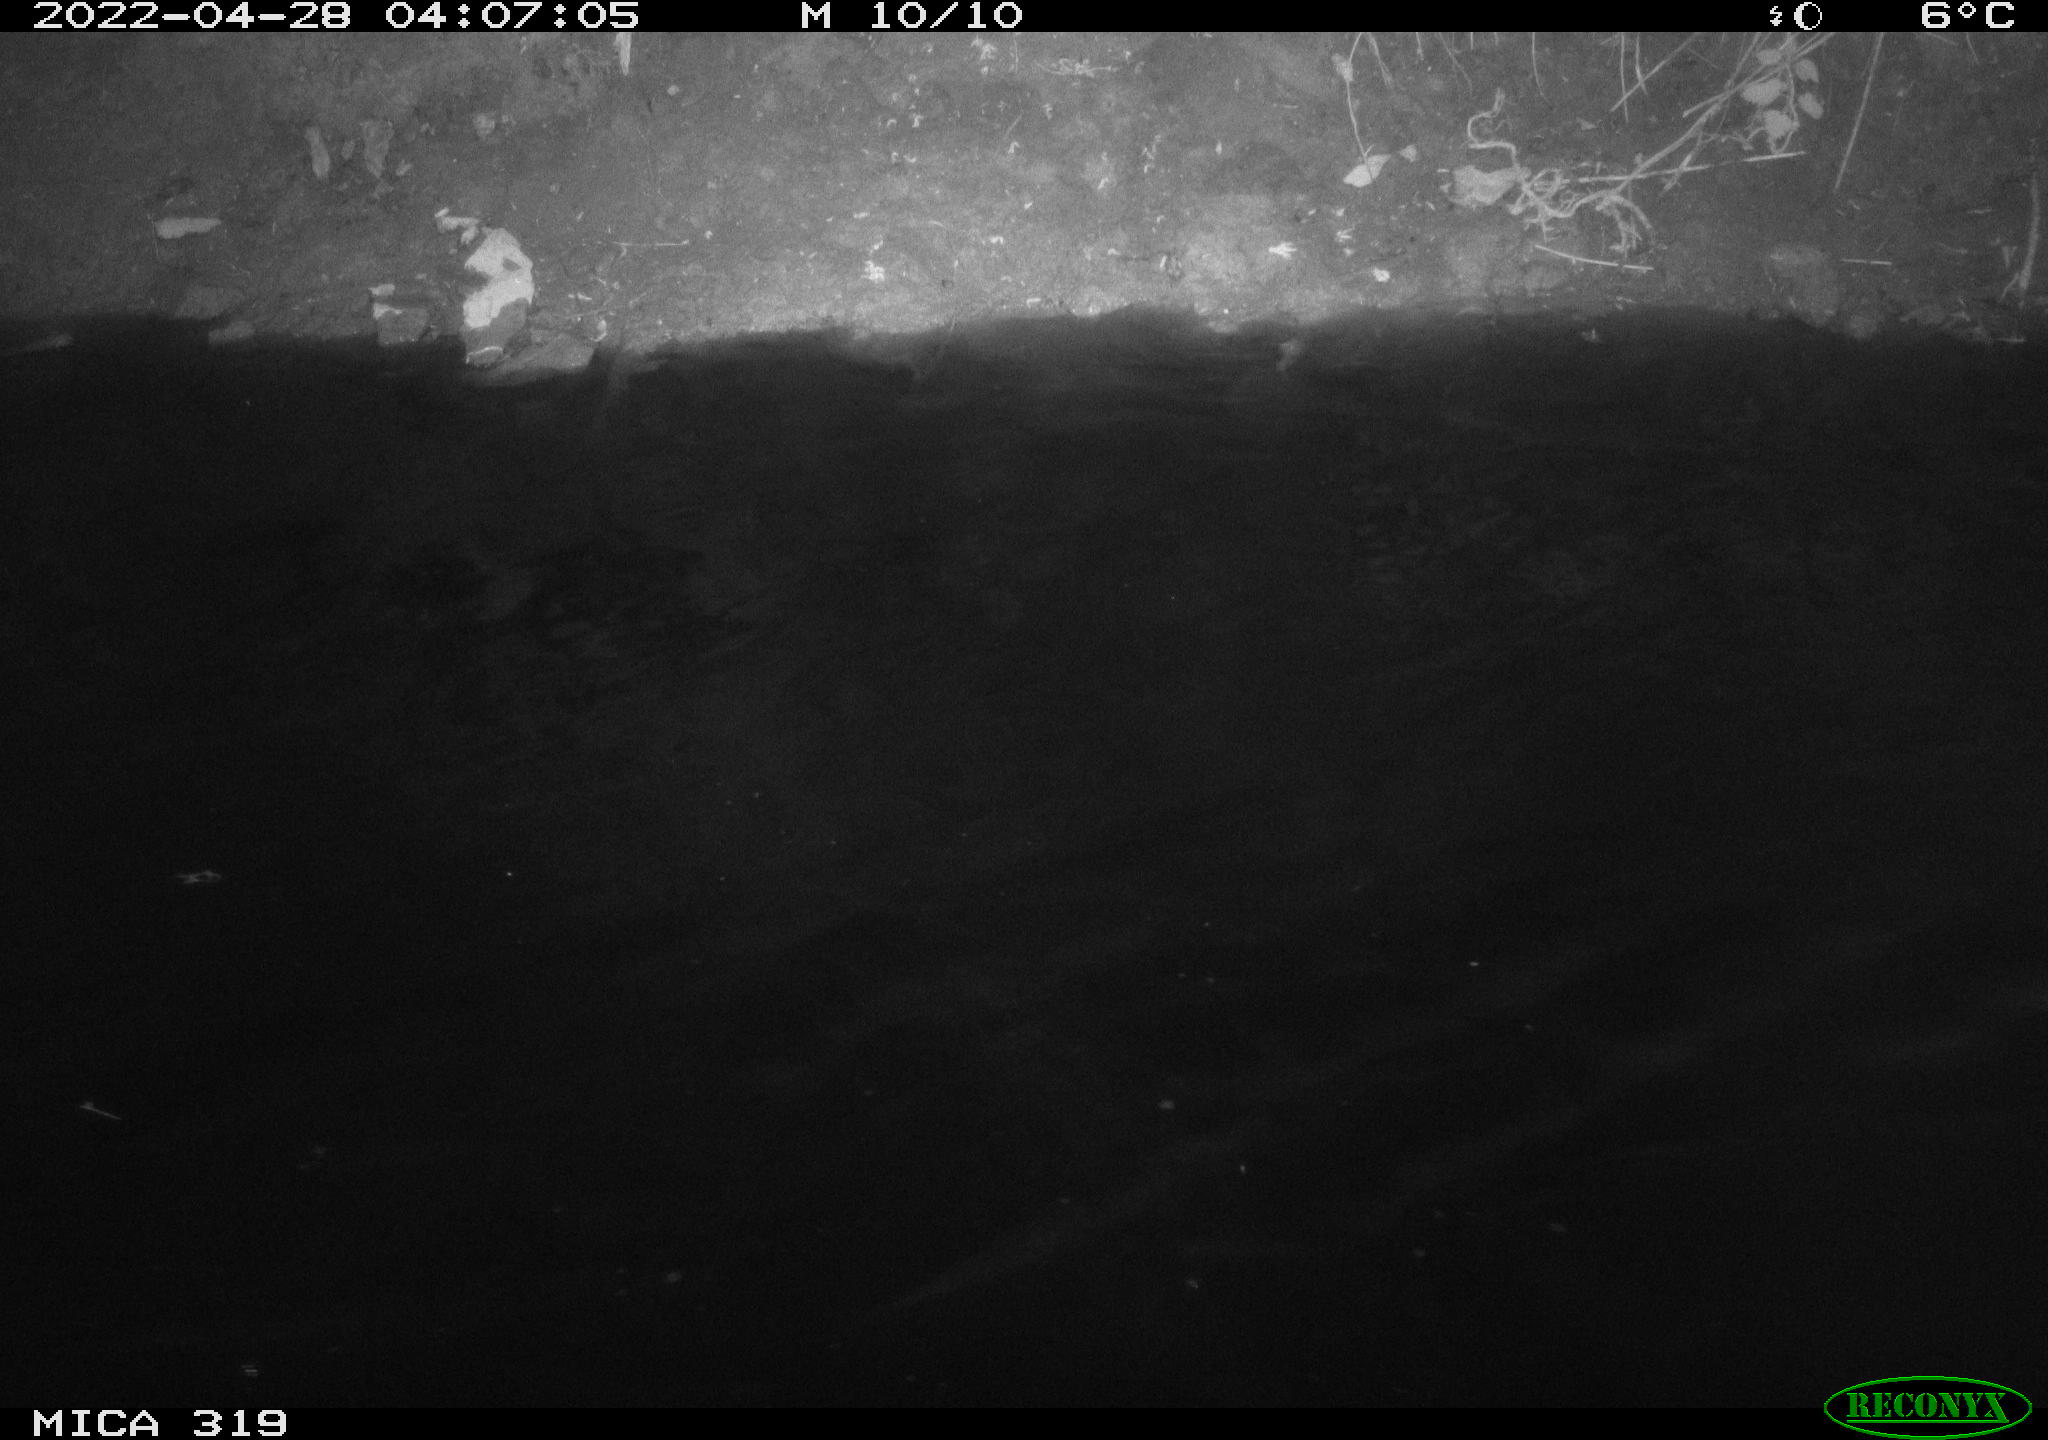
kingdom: Animalia
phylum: Chordata
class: Aves
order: Anseriformes
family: Anatidae
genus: Anas
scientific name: Anas platyrhynchos
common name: Mallard
